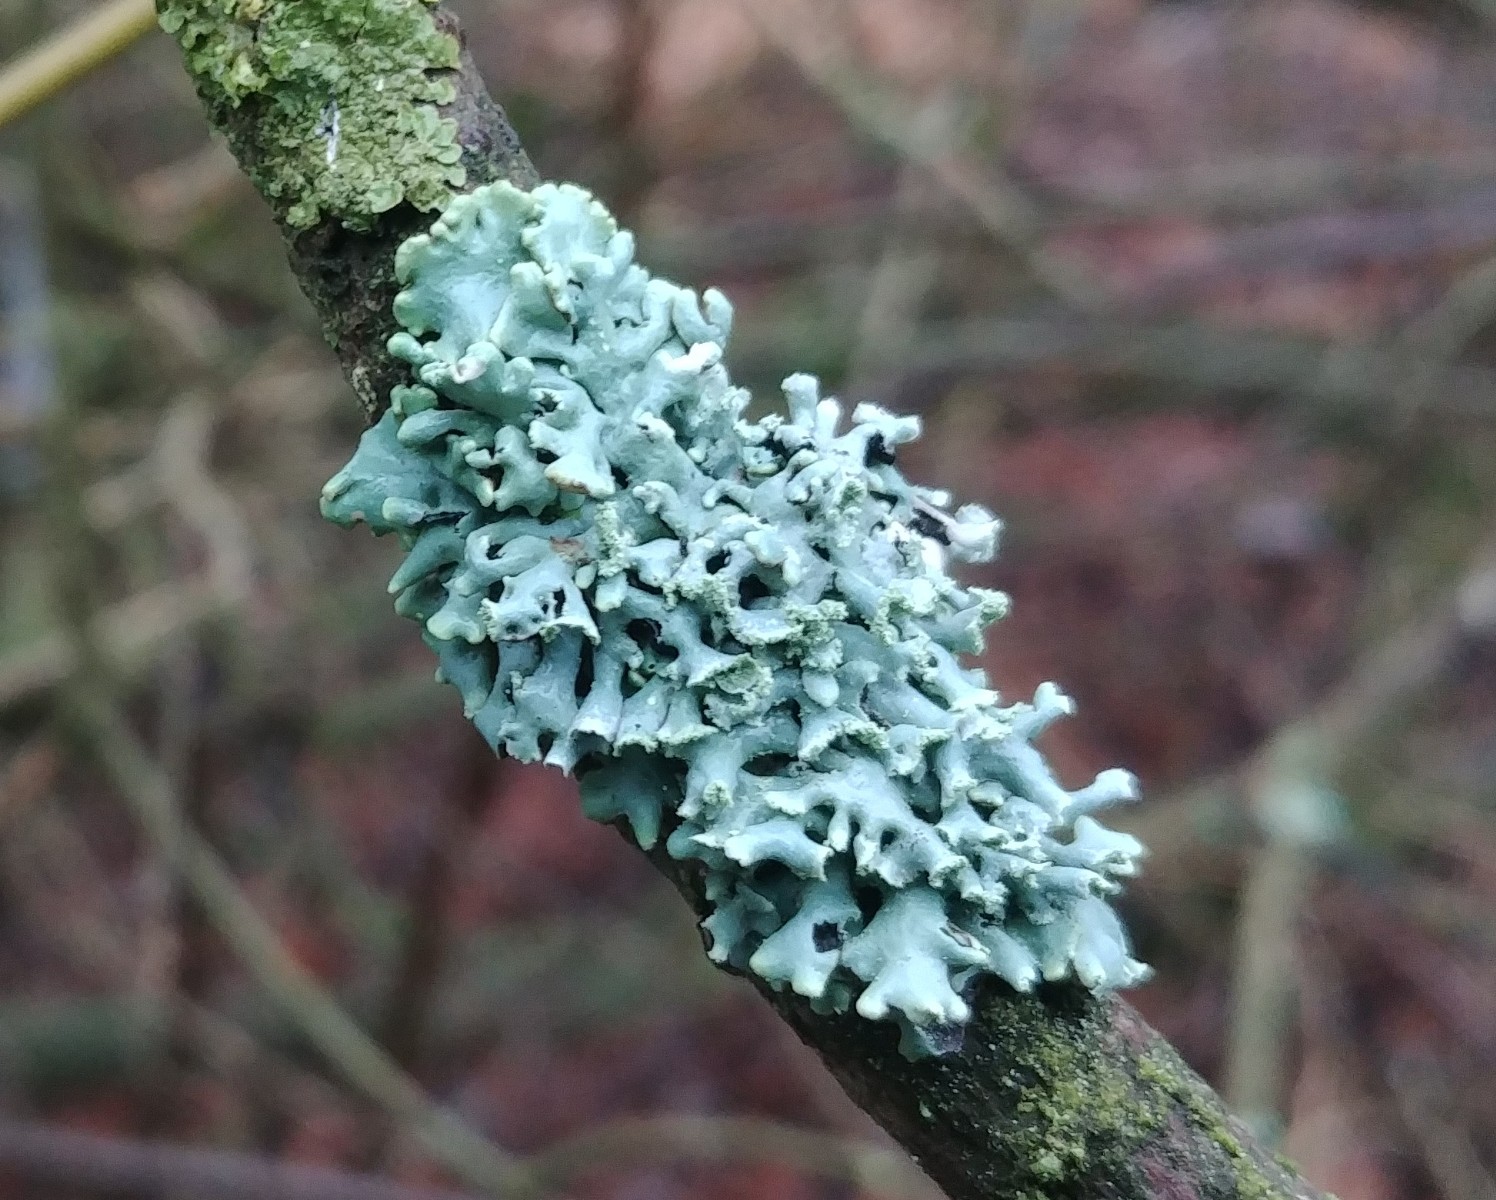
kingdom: Fungi
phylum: Ascomycota
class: Lecanoromycetes
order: Lecanorales
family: Parmeliaceae
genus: Hypogymnia
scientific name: Hypogymnia physodes
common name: almindelig kvistlav
